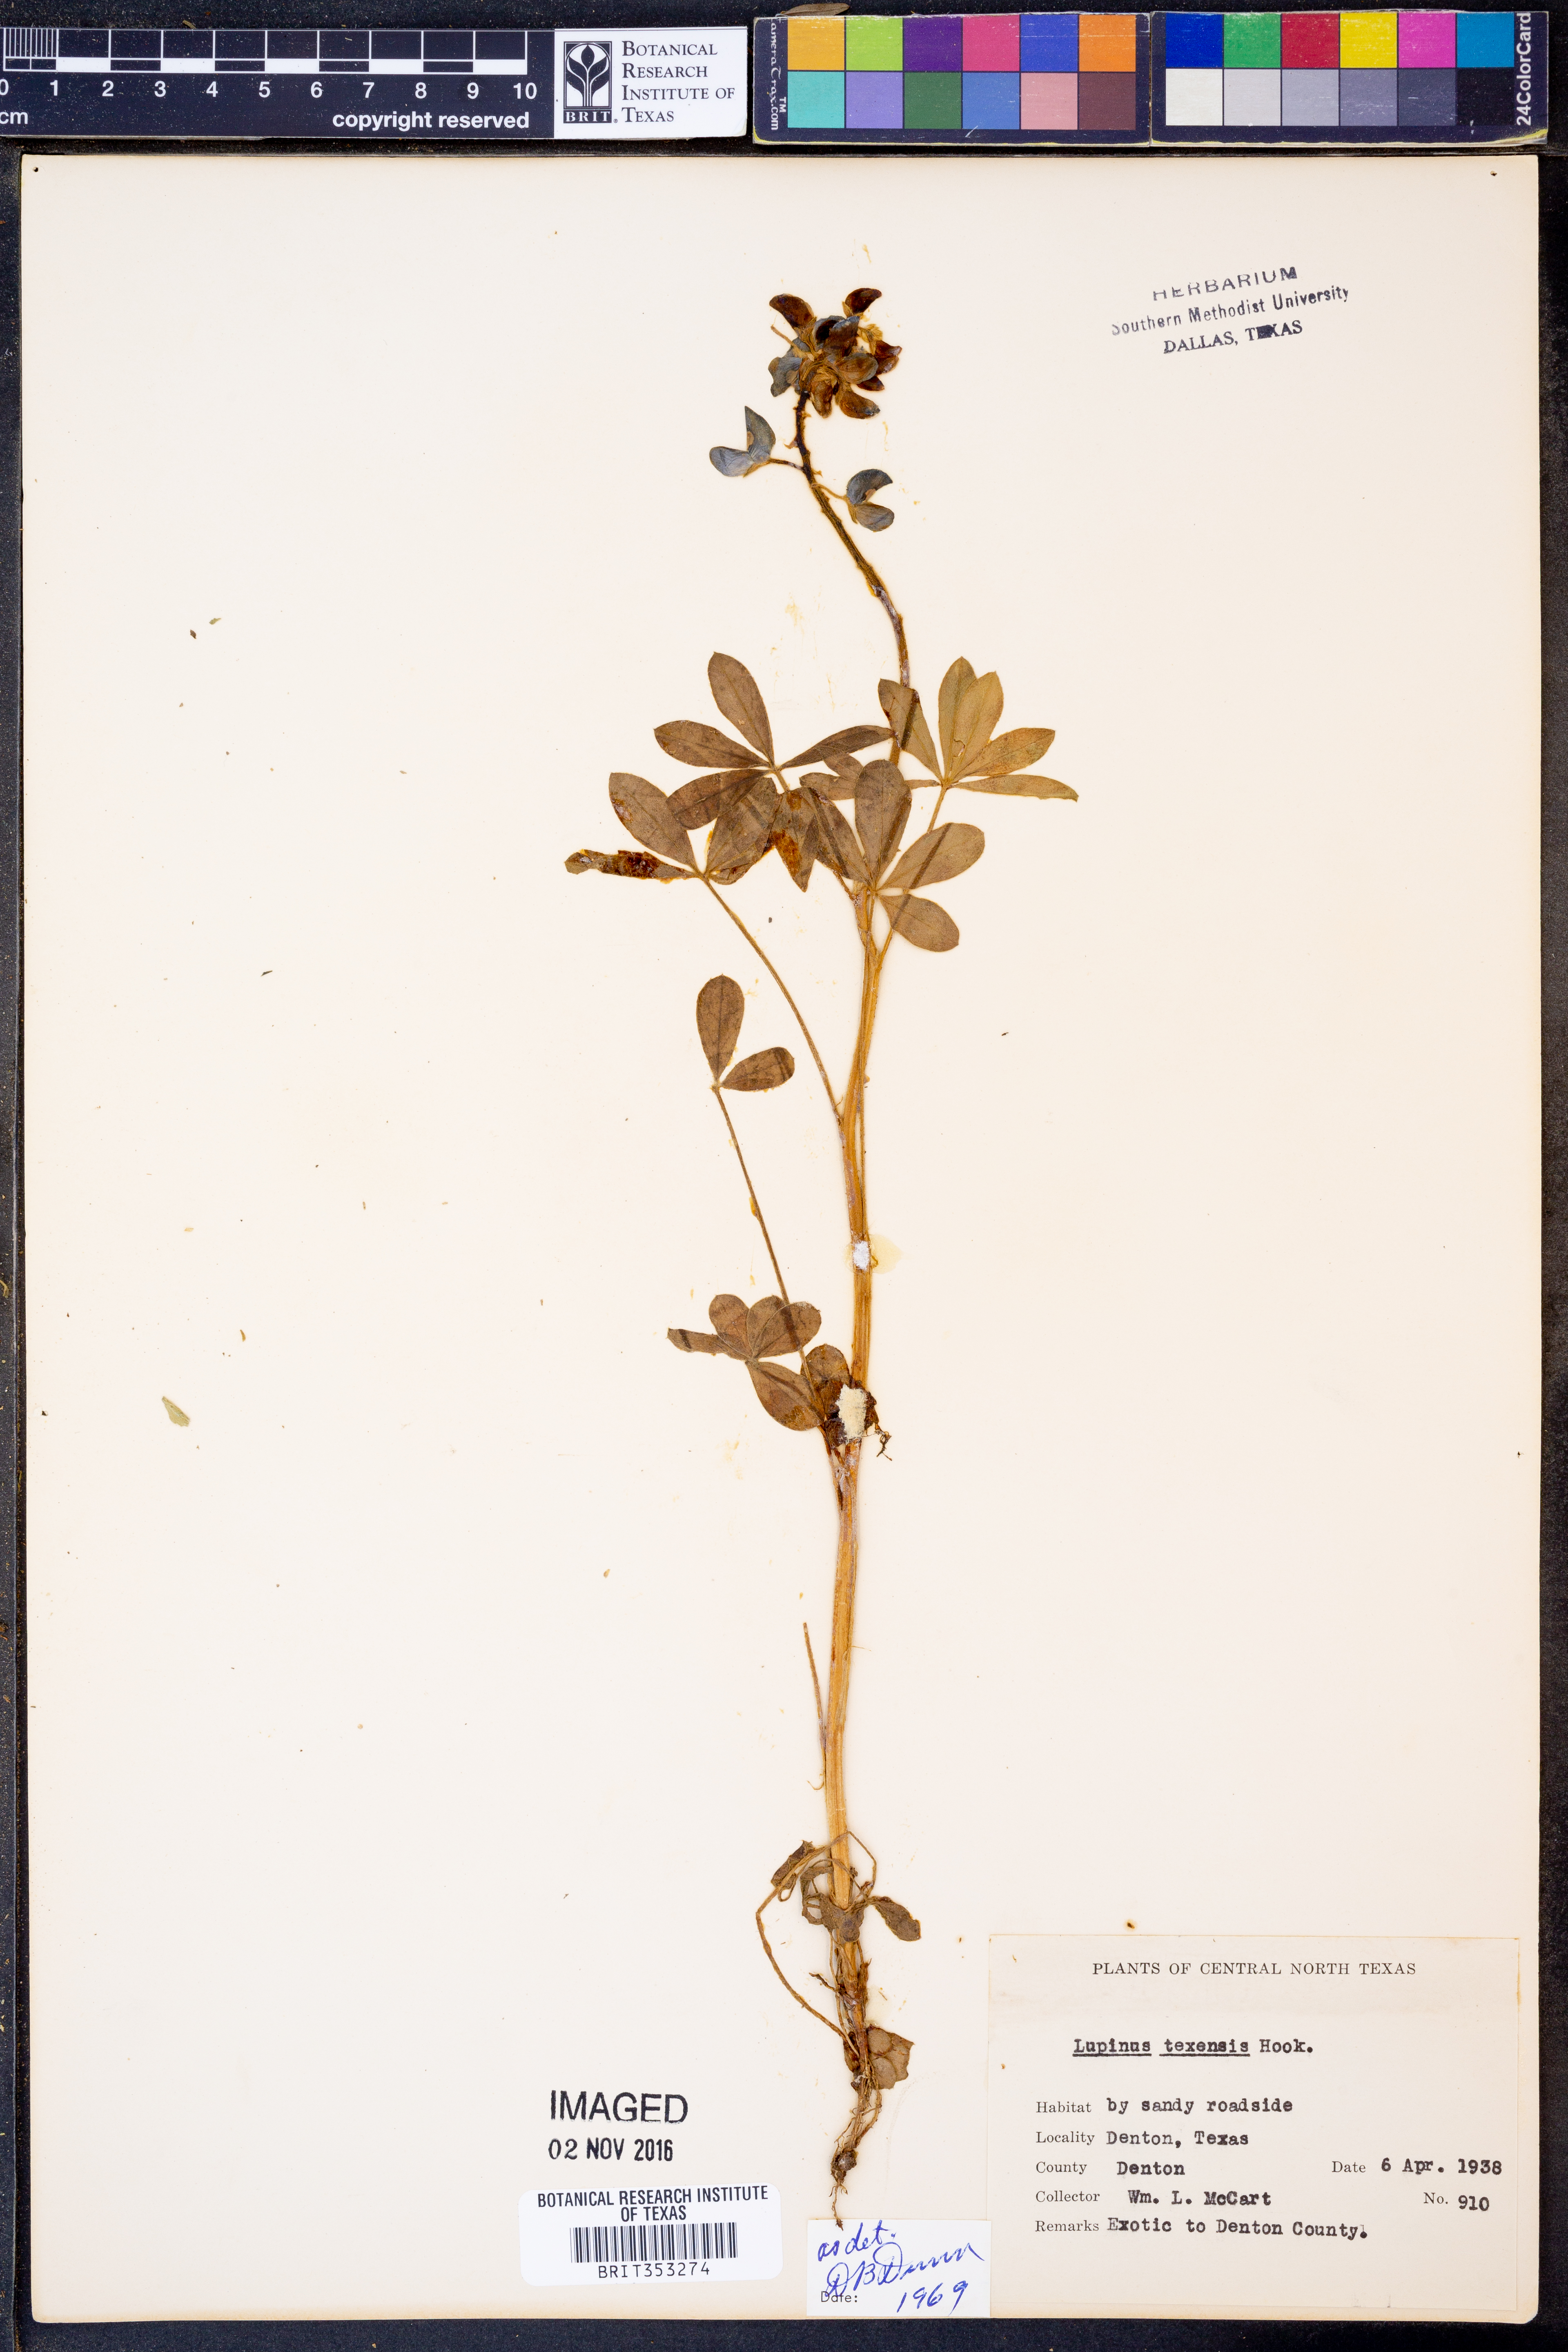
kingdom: Plantae
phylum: Tracheophyta
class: Magnoliopsida
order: Fabales
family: Fabaceae
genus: Lupinus
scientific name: Lupinus texensis
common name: Texas bluebonnet
